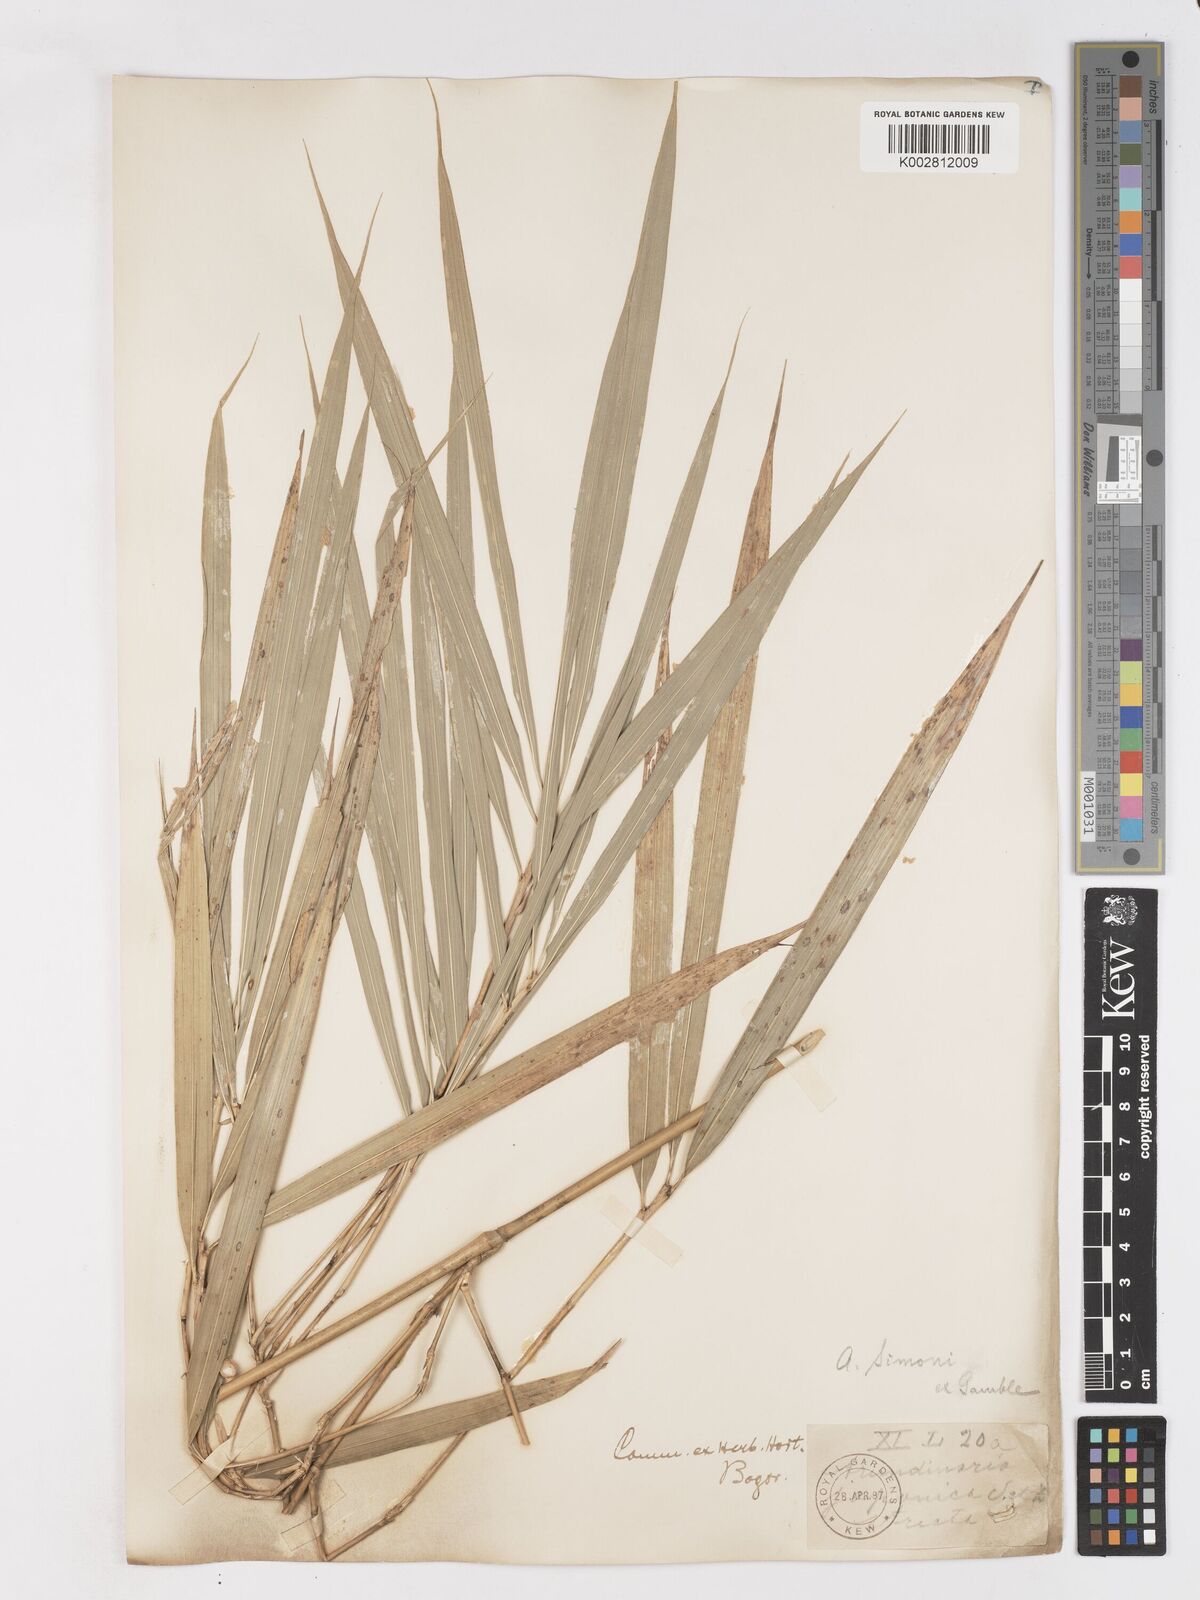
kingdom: Plantae
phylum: Tracheophyta
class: Liliopsida
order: Poales
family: Poaceae
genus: Pleioblastus
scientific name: Pleioblastus simonii
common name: Simon bamboo
